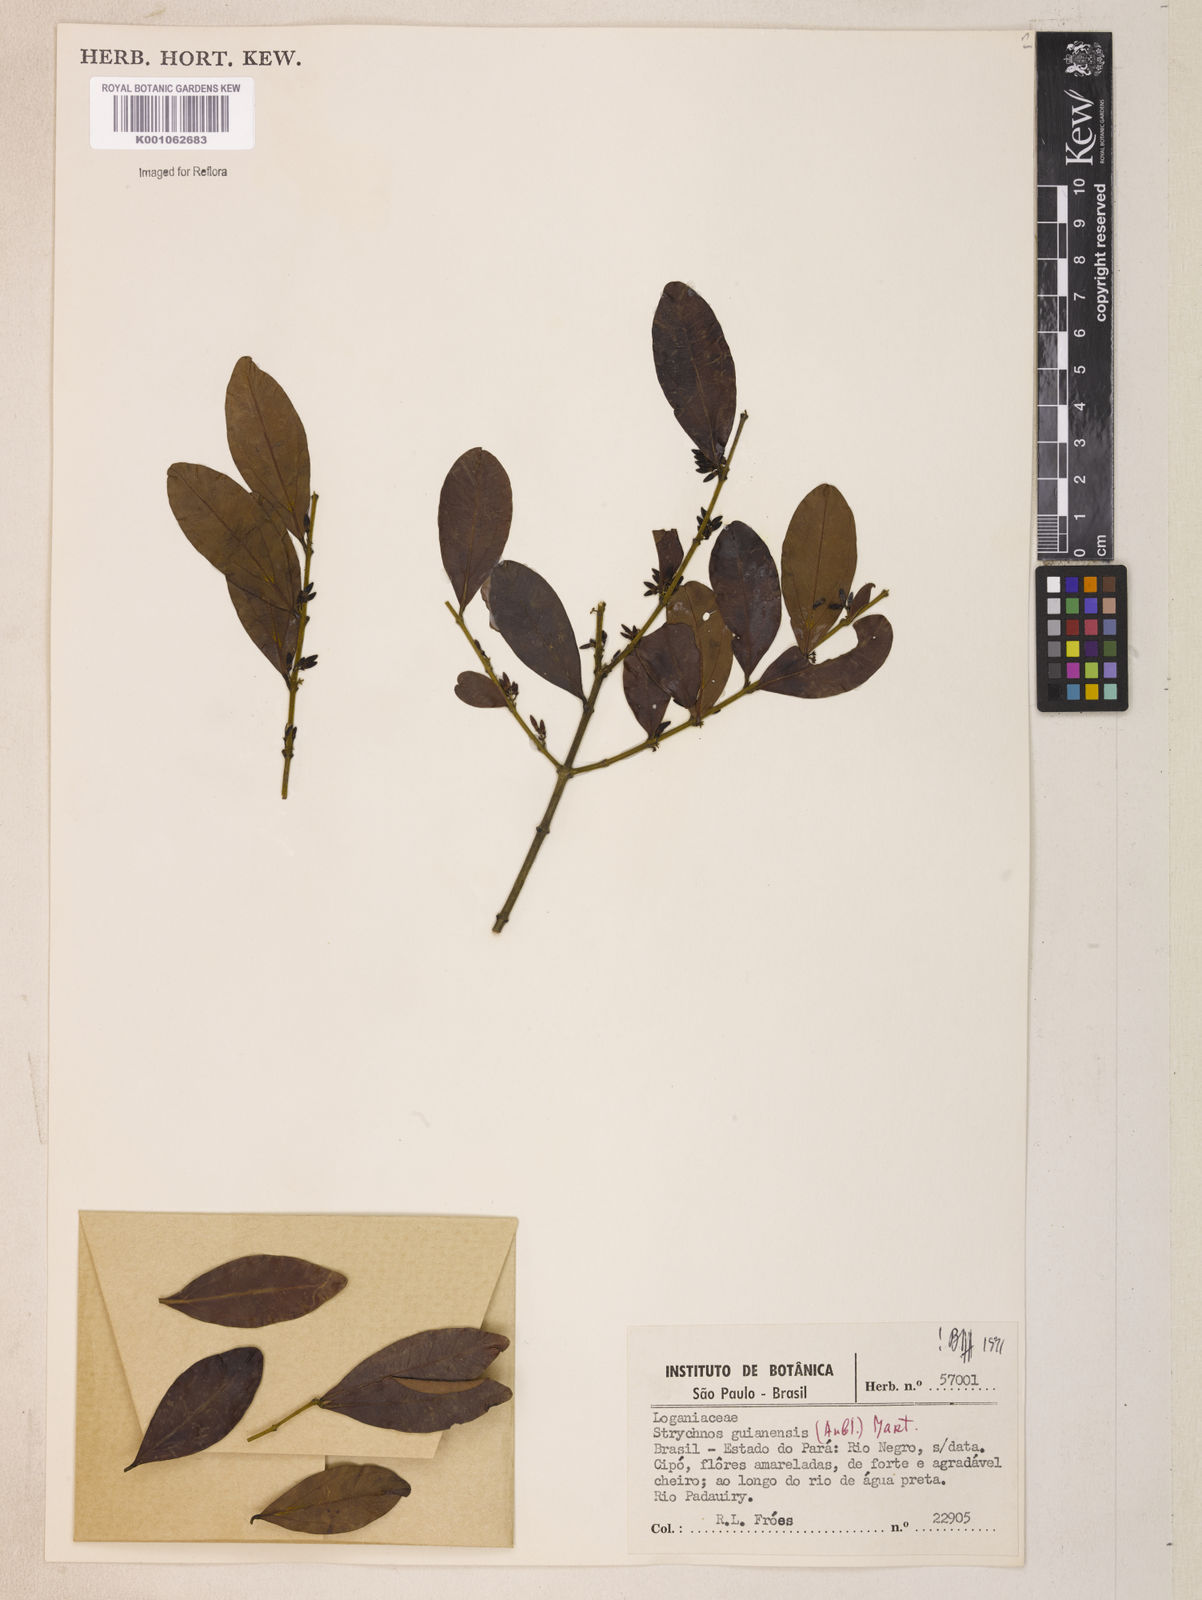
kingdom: Plantae
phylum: Tracheophyta
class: Magnoliopsida
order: Gentianales
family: Loganiaceae
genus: Strychnos
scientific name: Strychnos guianensis
